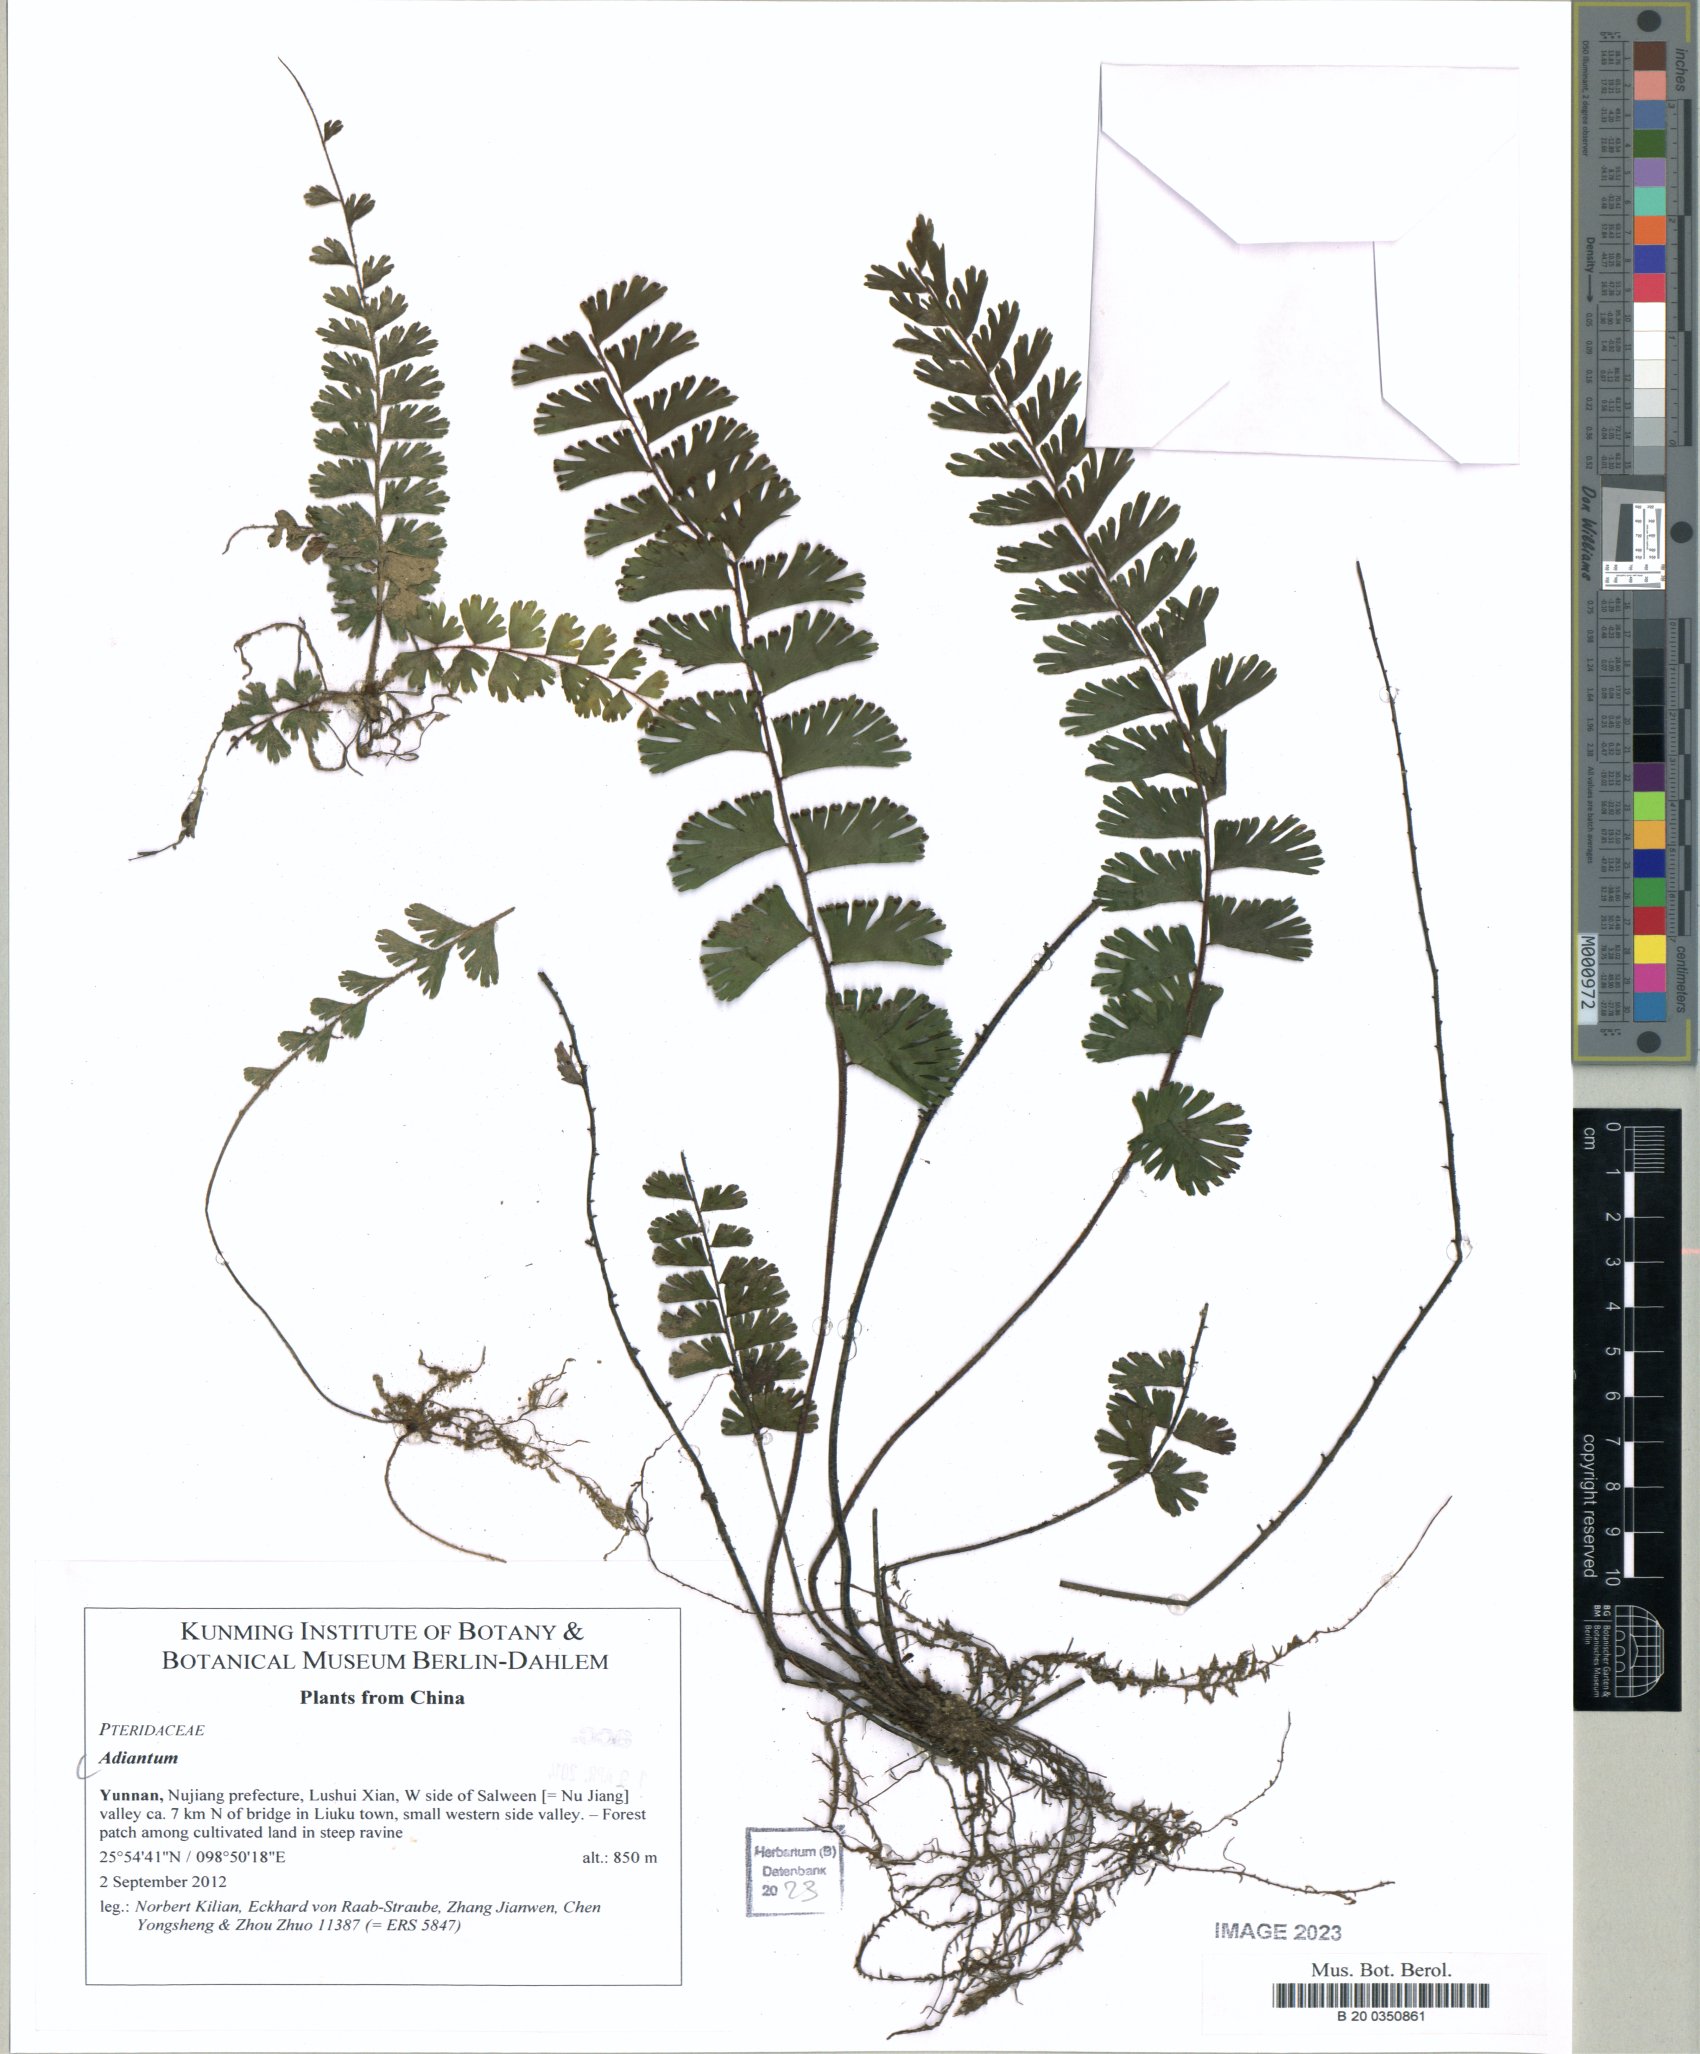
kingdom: Plantae
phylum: Tracheophyta
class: Polypodiopsida
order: Polypodiales
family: Pteridaceae
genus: Adiantum
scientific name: Adiantum
